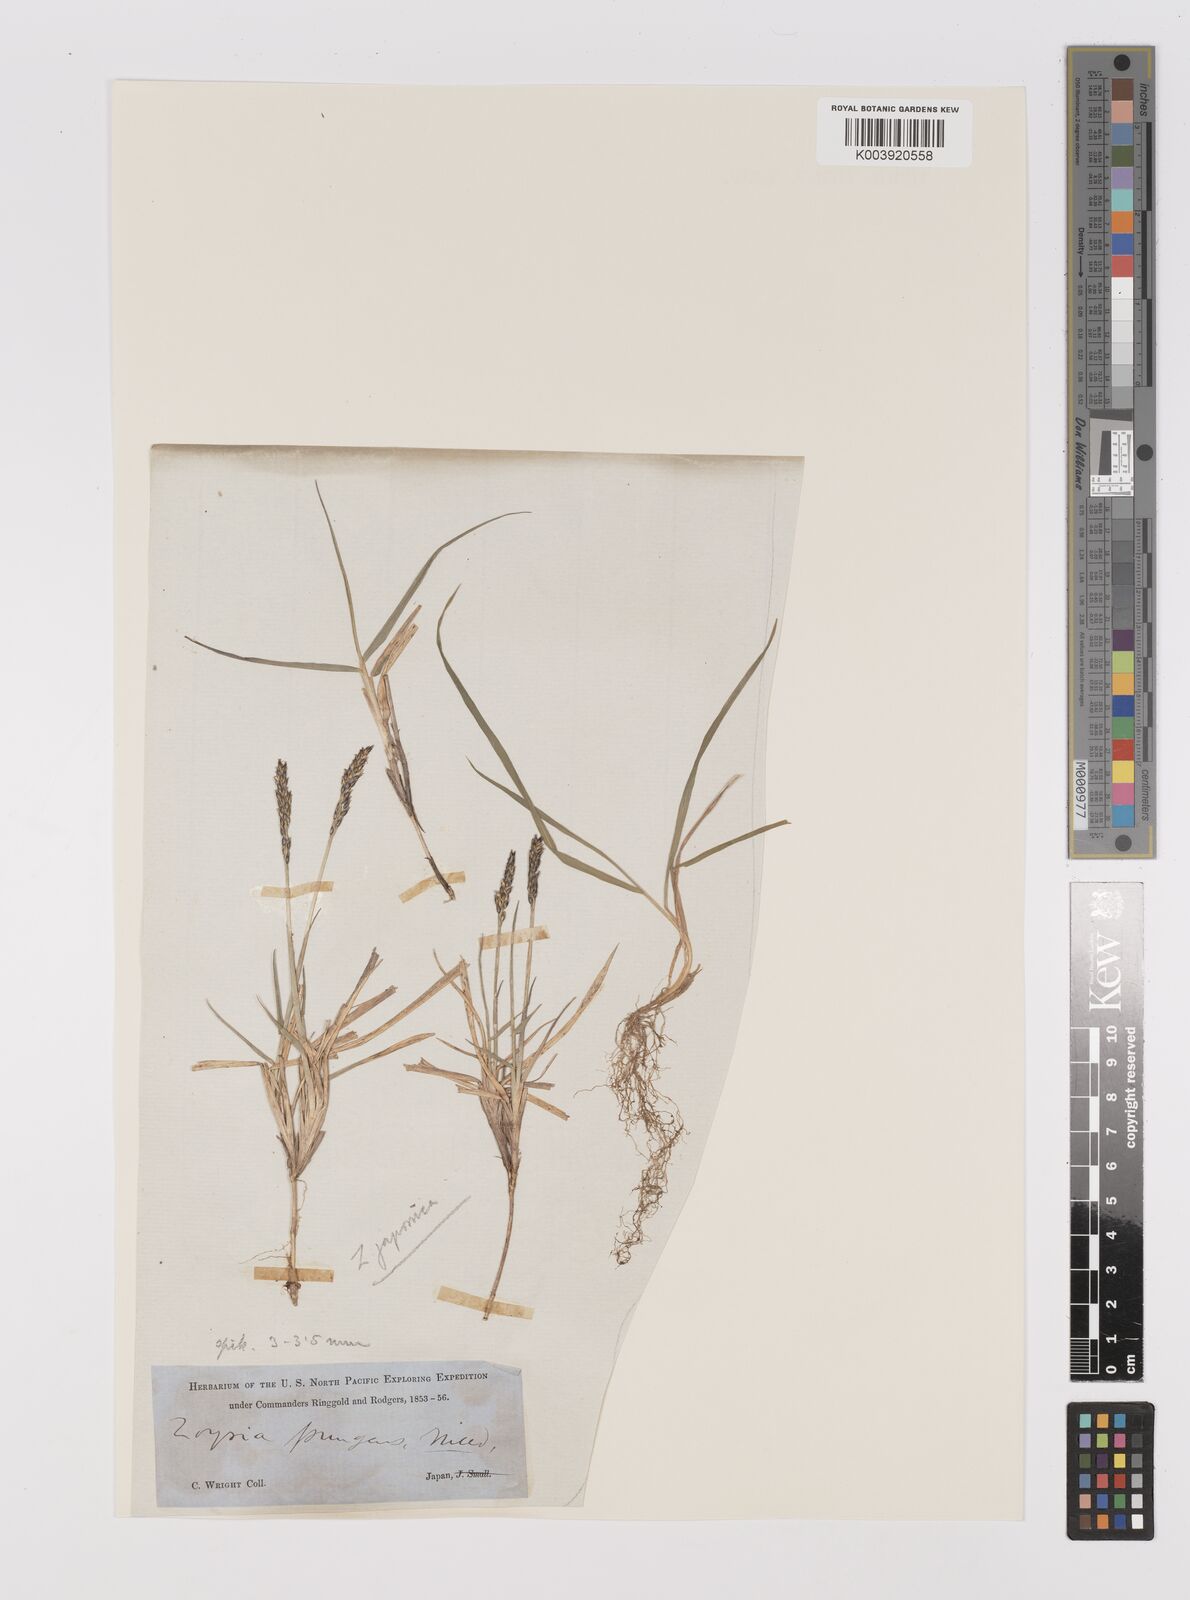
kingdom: Plantae
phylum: Tracheophyta
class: Liliopsida
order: Poales
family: Poaceae
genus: Zoysia
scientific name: Zoysia japonica
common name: Korean lawngrass
